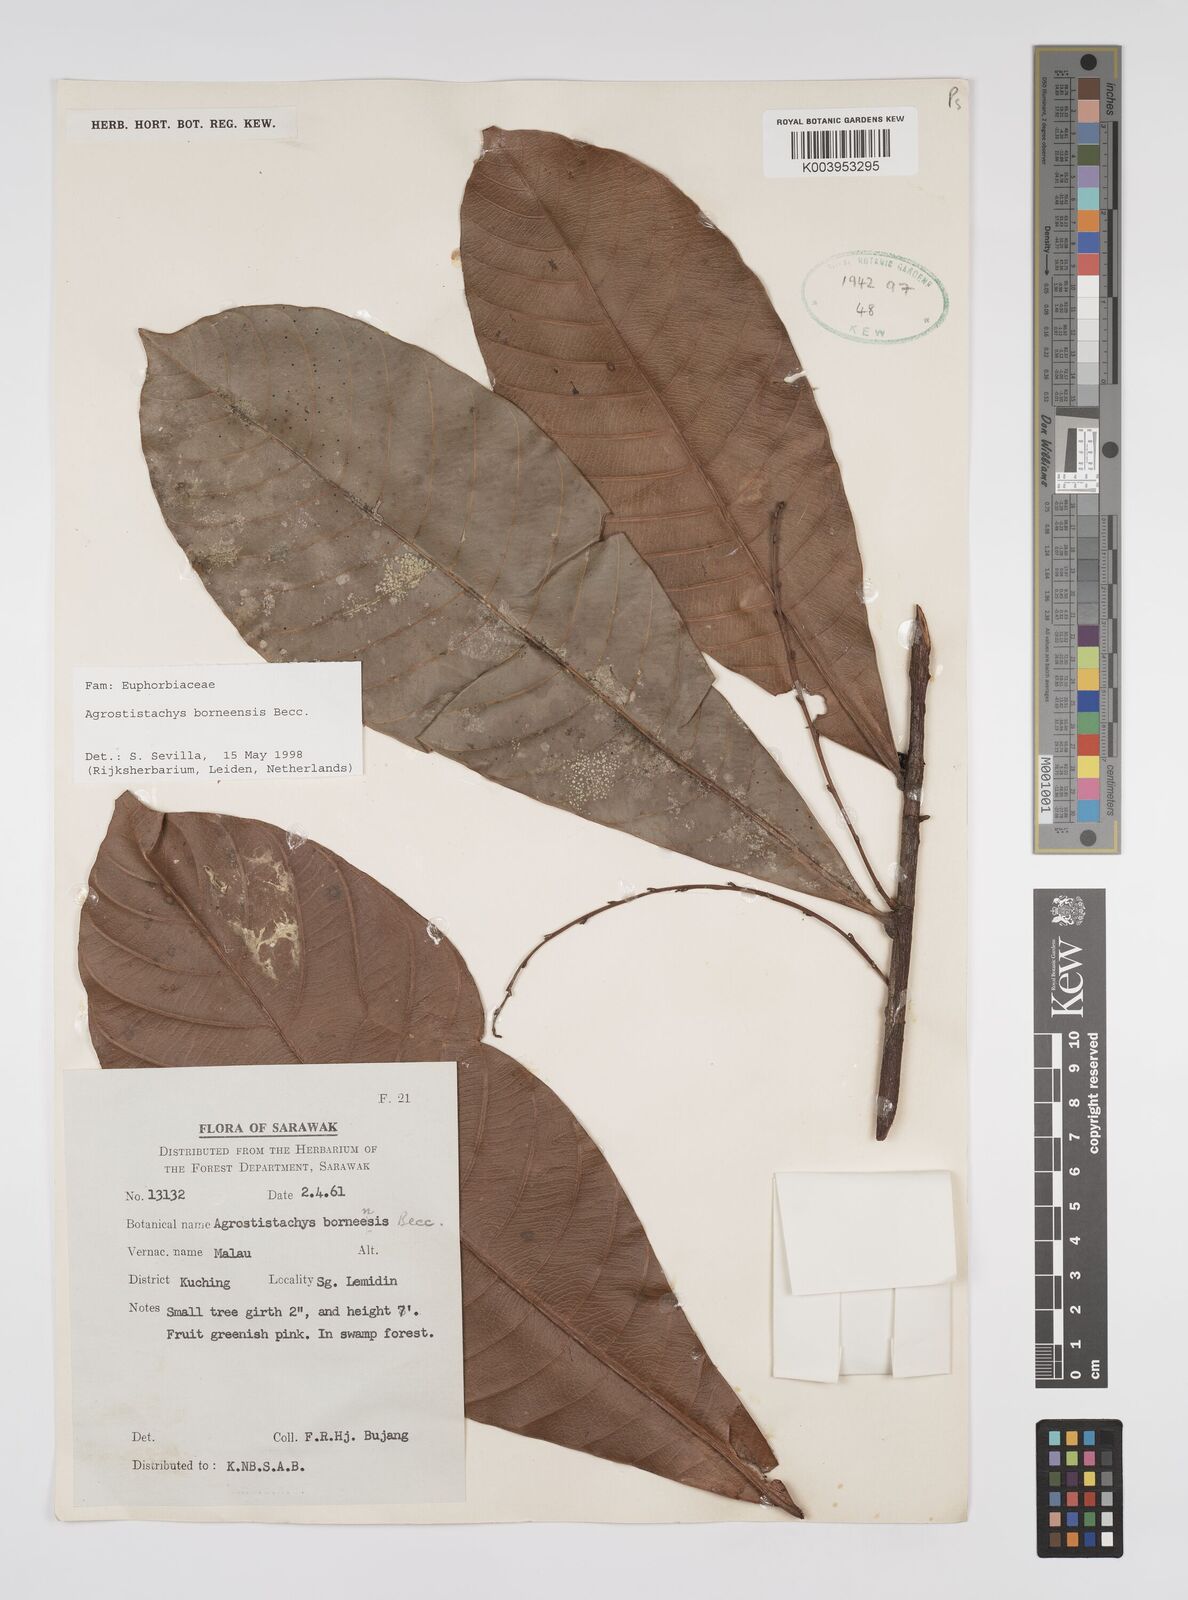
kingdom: Plantae
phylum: Tracheophyta
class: Magnoliopsida
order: Malpighiales
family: Euphorbiaceae
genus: Agrostistachys
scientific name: Agrostistachys
